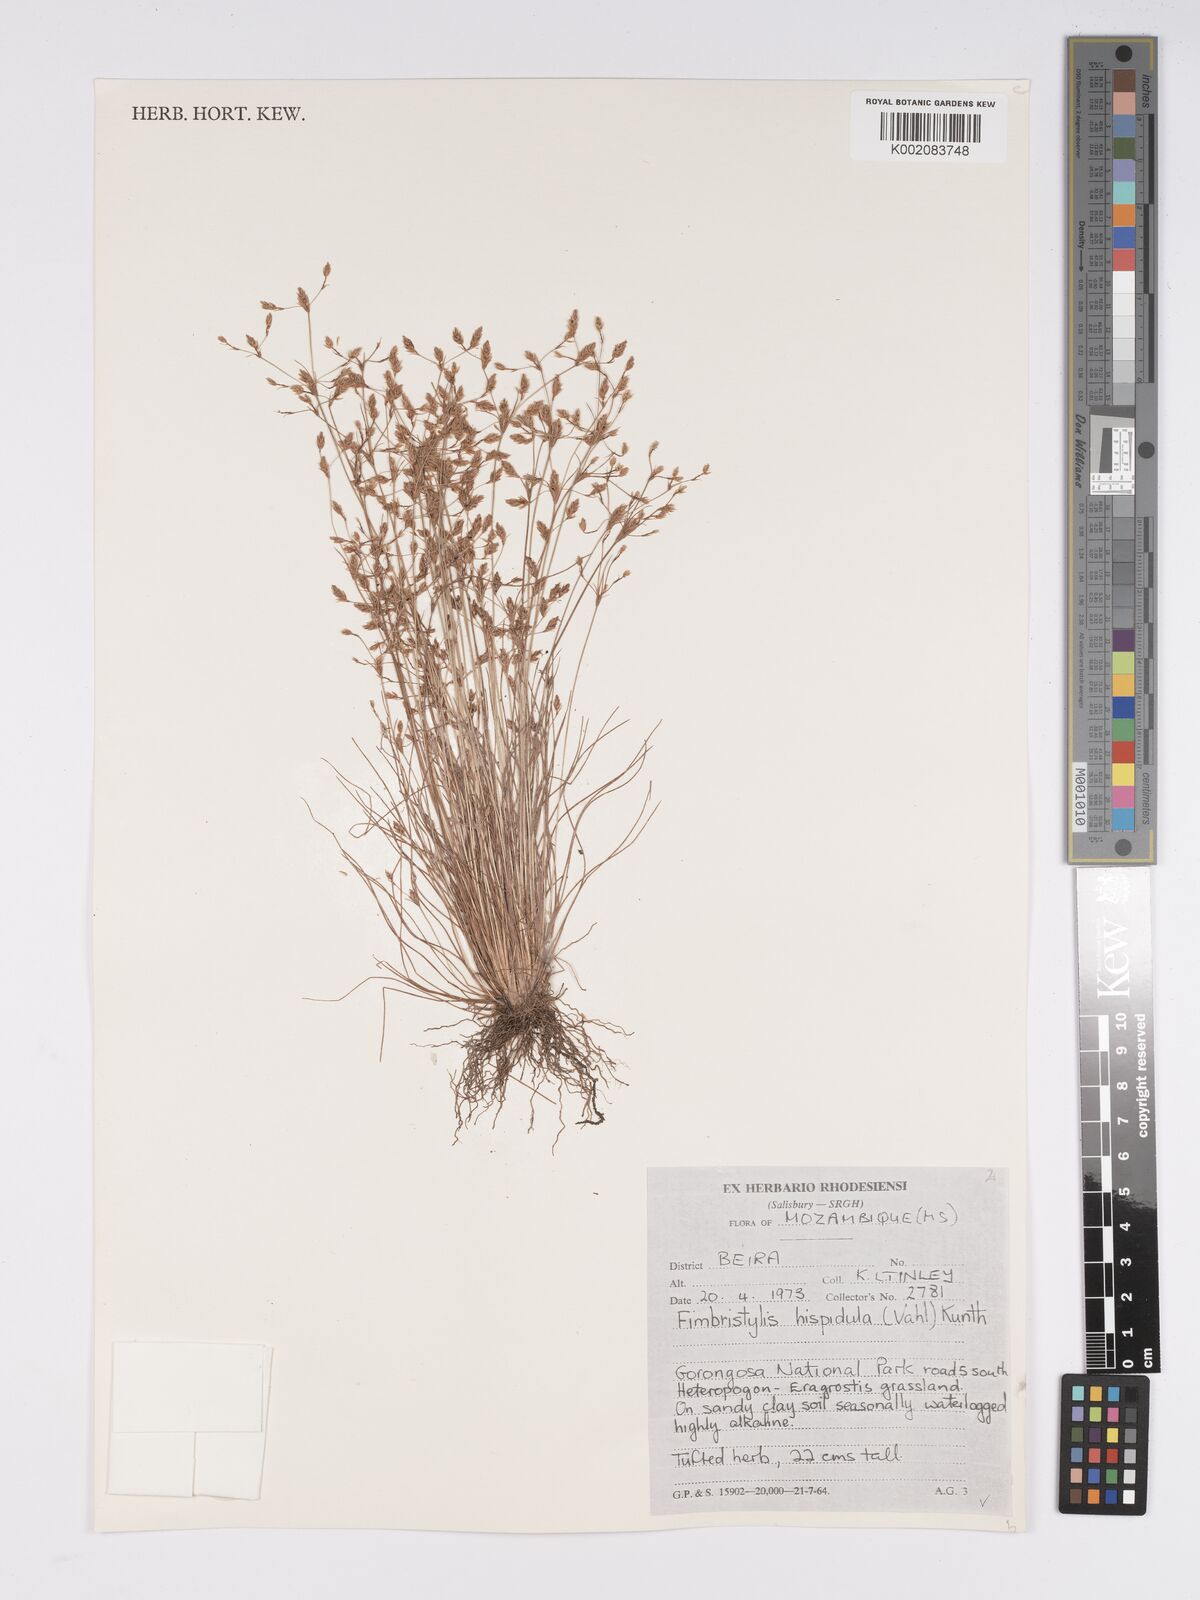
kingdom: Plantae
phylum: Tracheophyta
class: Liliopsida
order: Poales
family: Cyperaceae
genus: Bulbostylis
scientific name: Bulbostylis hispidula
